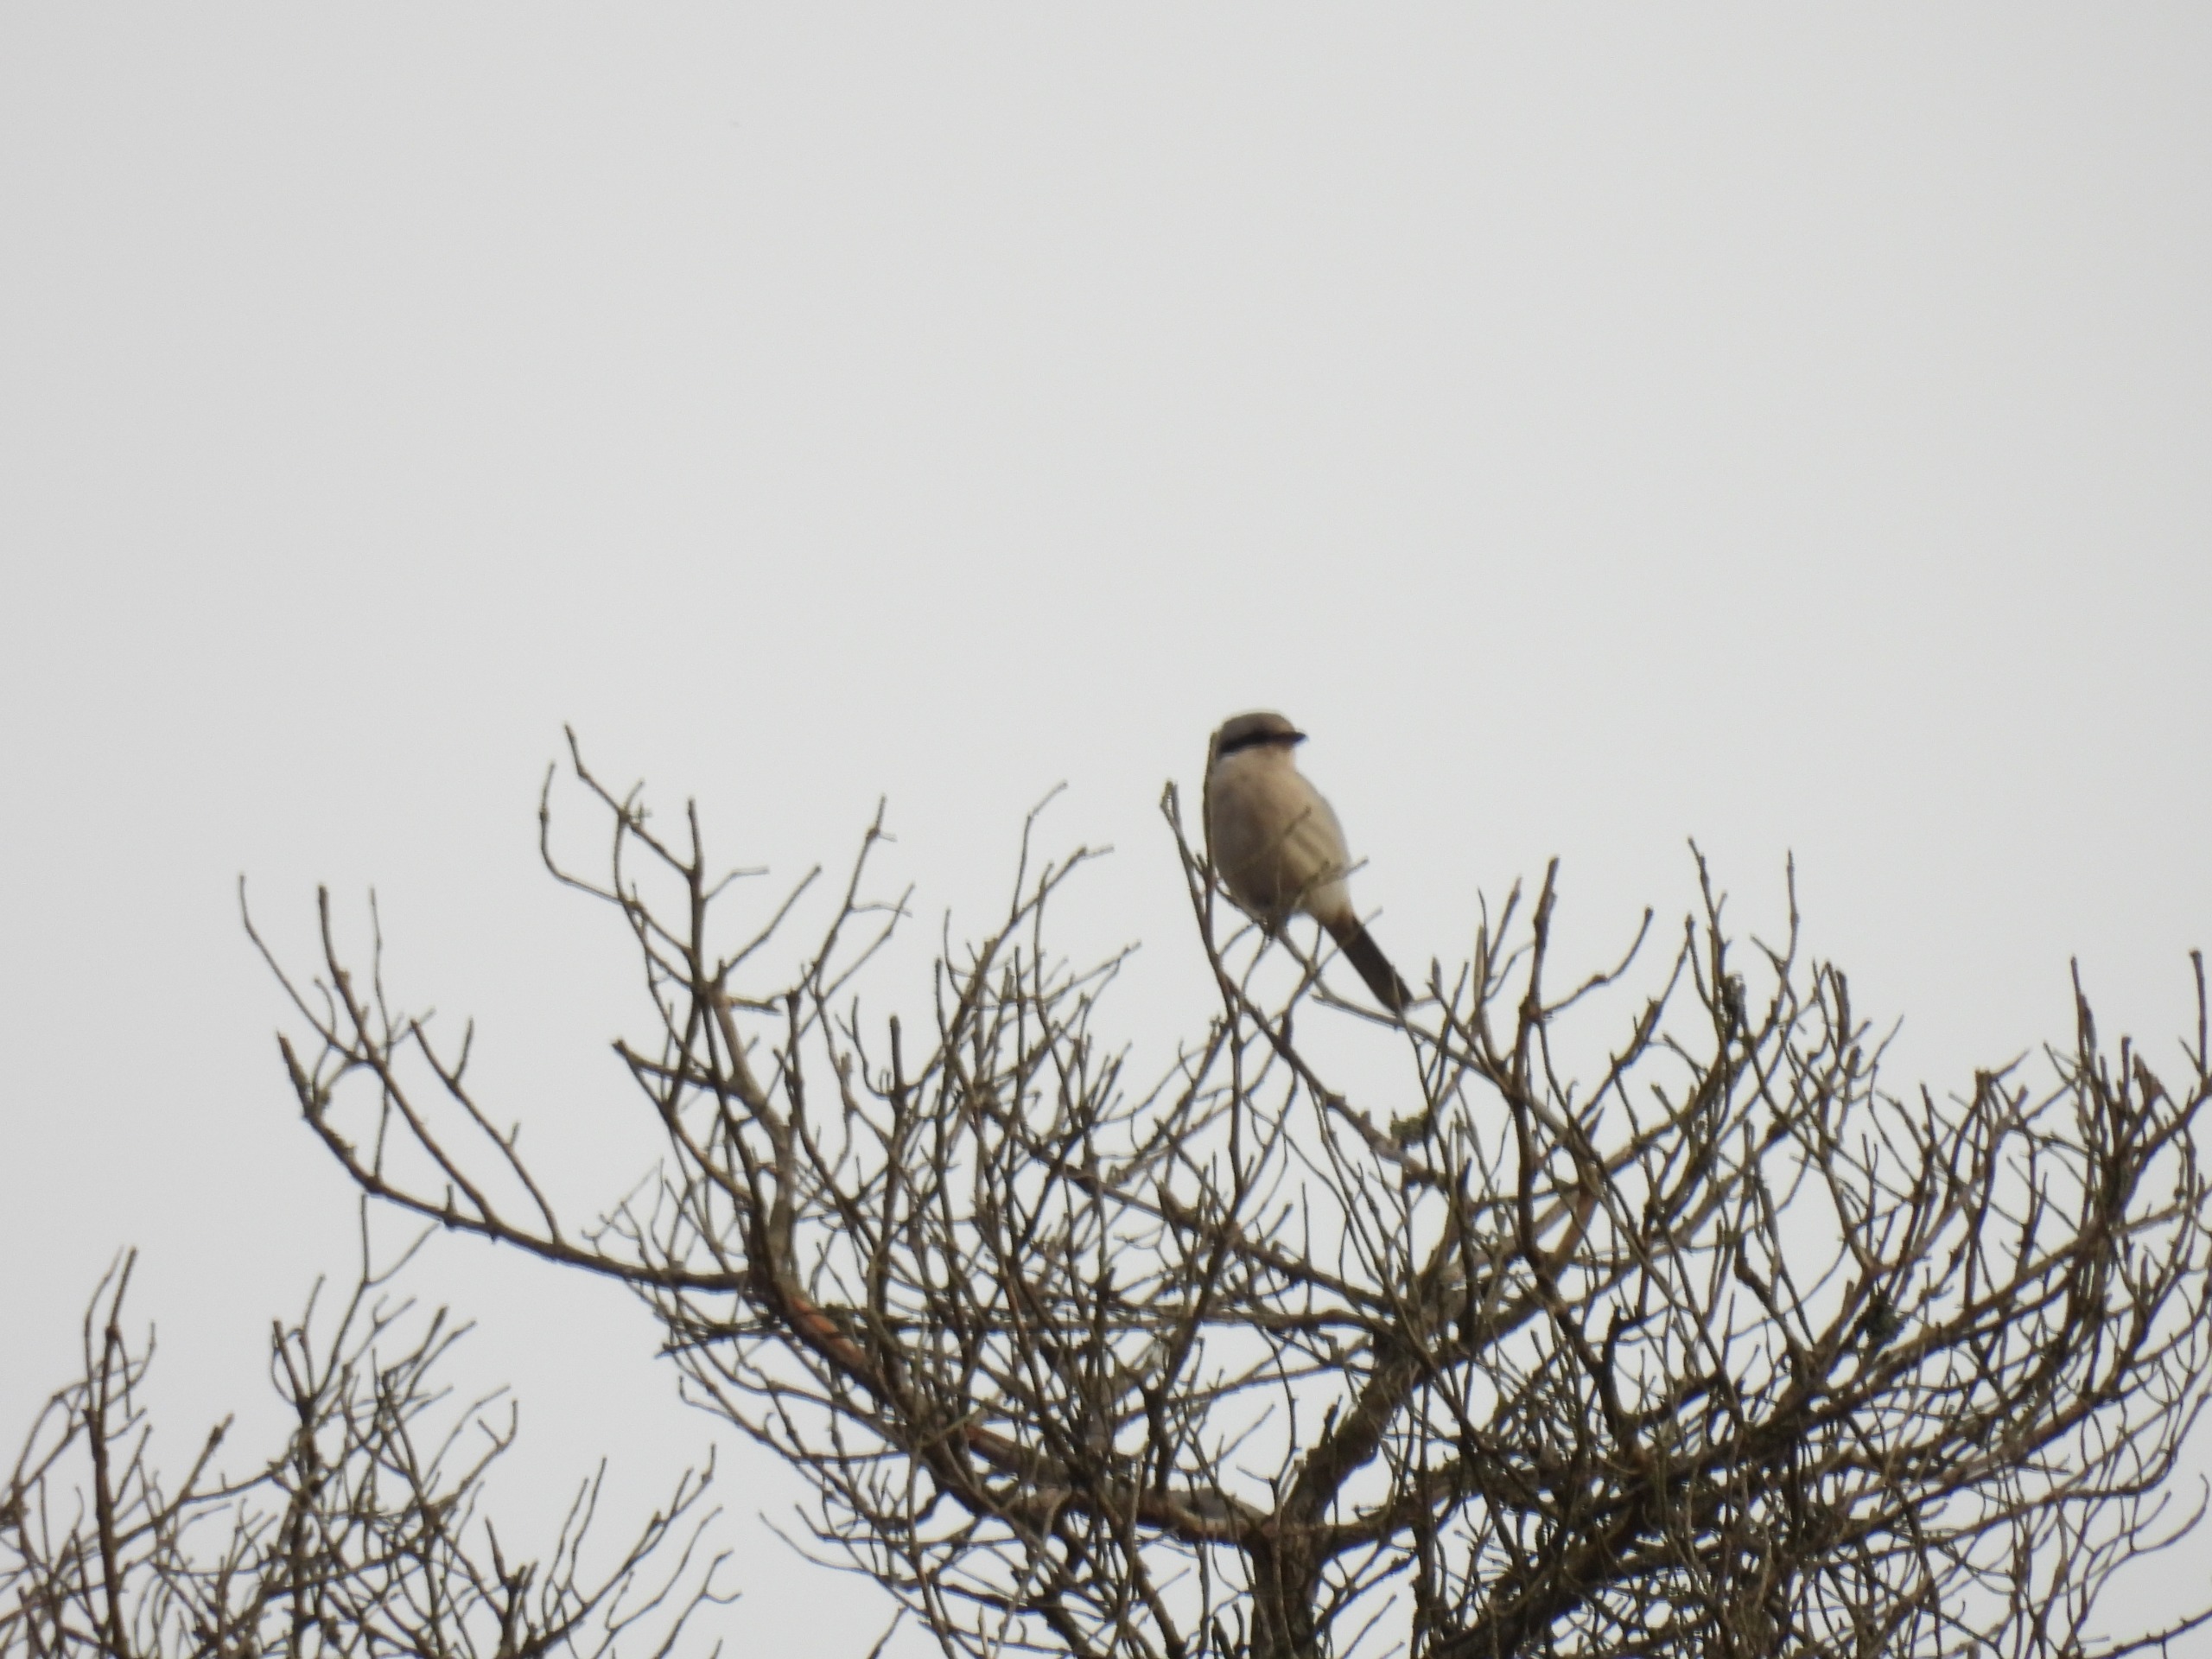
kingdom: Animalia
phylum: Chordata
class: Aves
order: Passeriformes
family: Laniidae
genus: Lanius
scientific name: Lanius excubitor
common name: Stor tornskade
